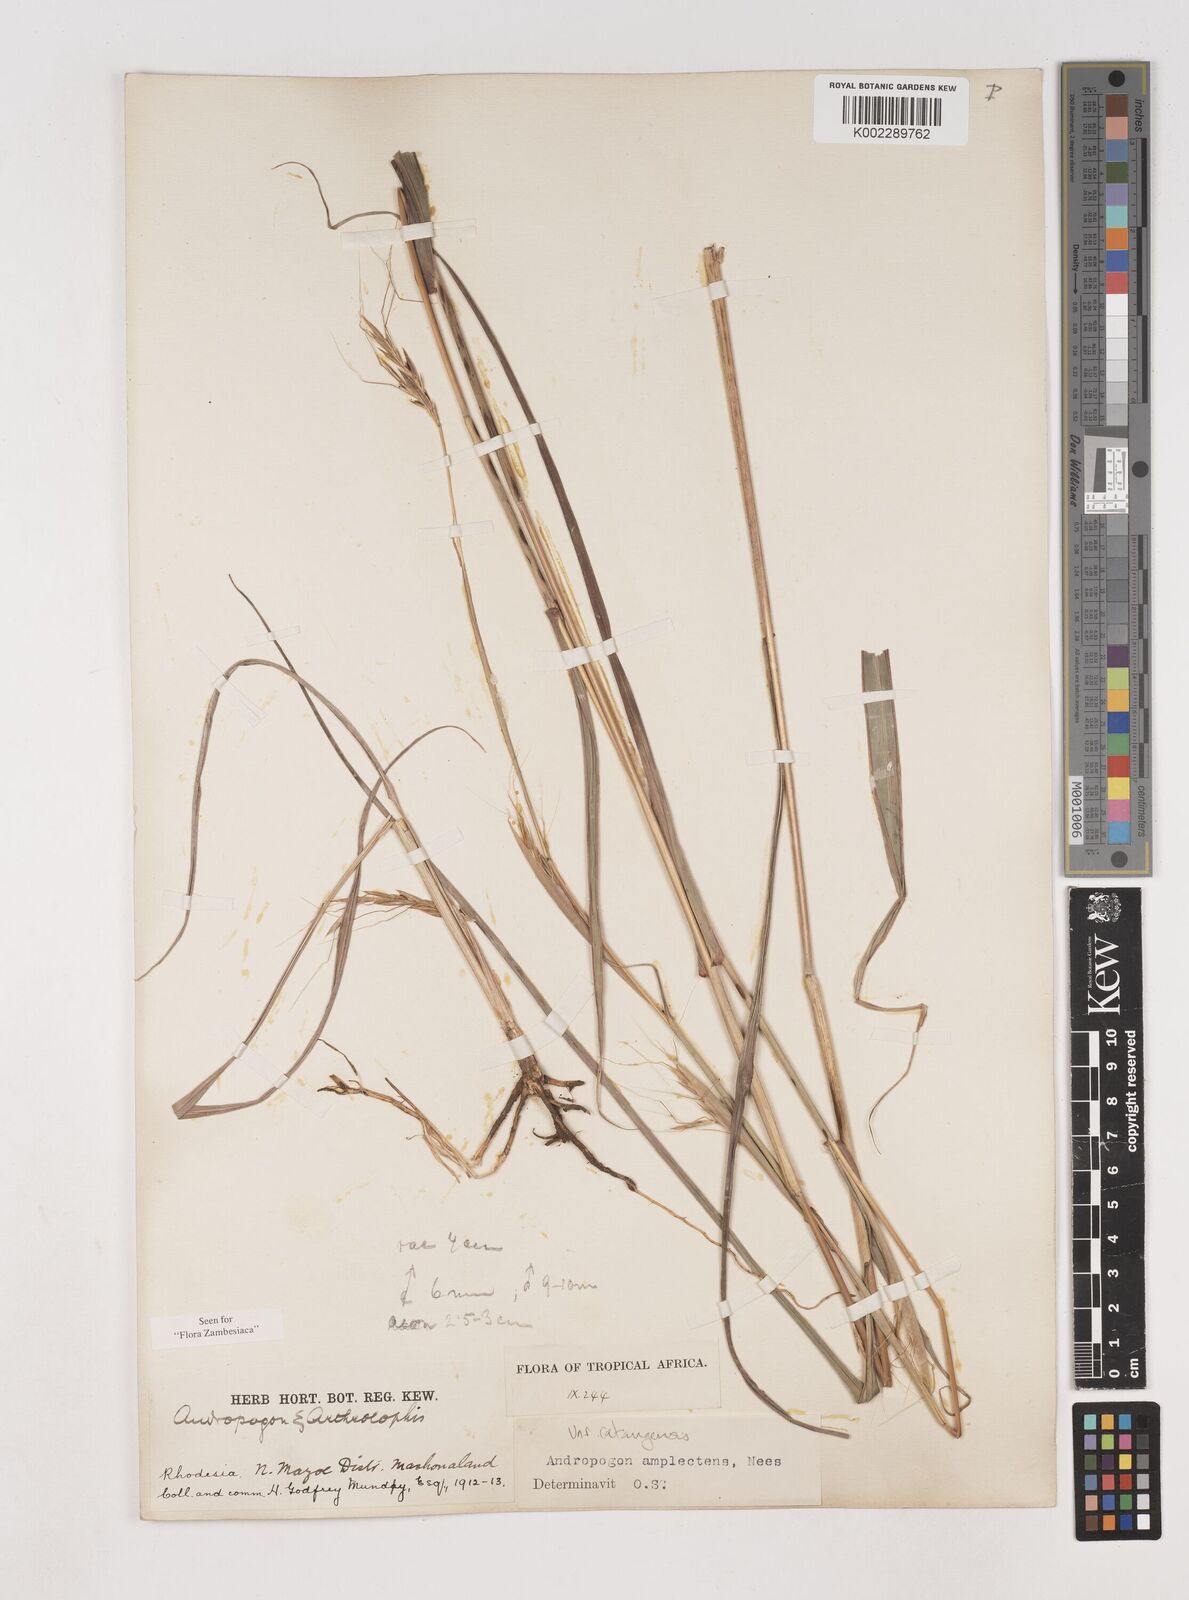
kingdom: Plantae
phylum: Tracheophyta
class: Liliopsida
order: Poales
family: Poaceae
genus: Diheteropogon
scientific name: Diheteropogon amplectens
